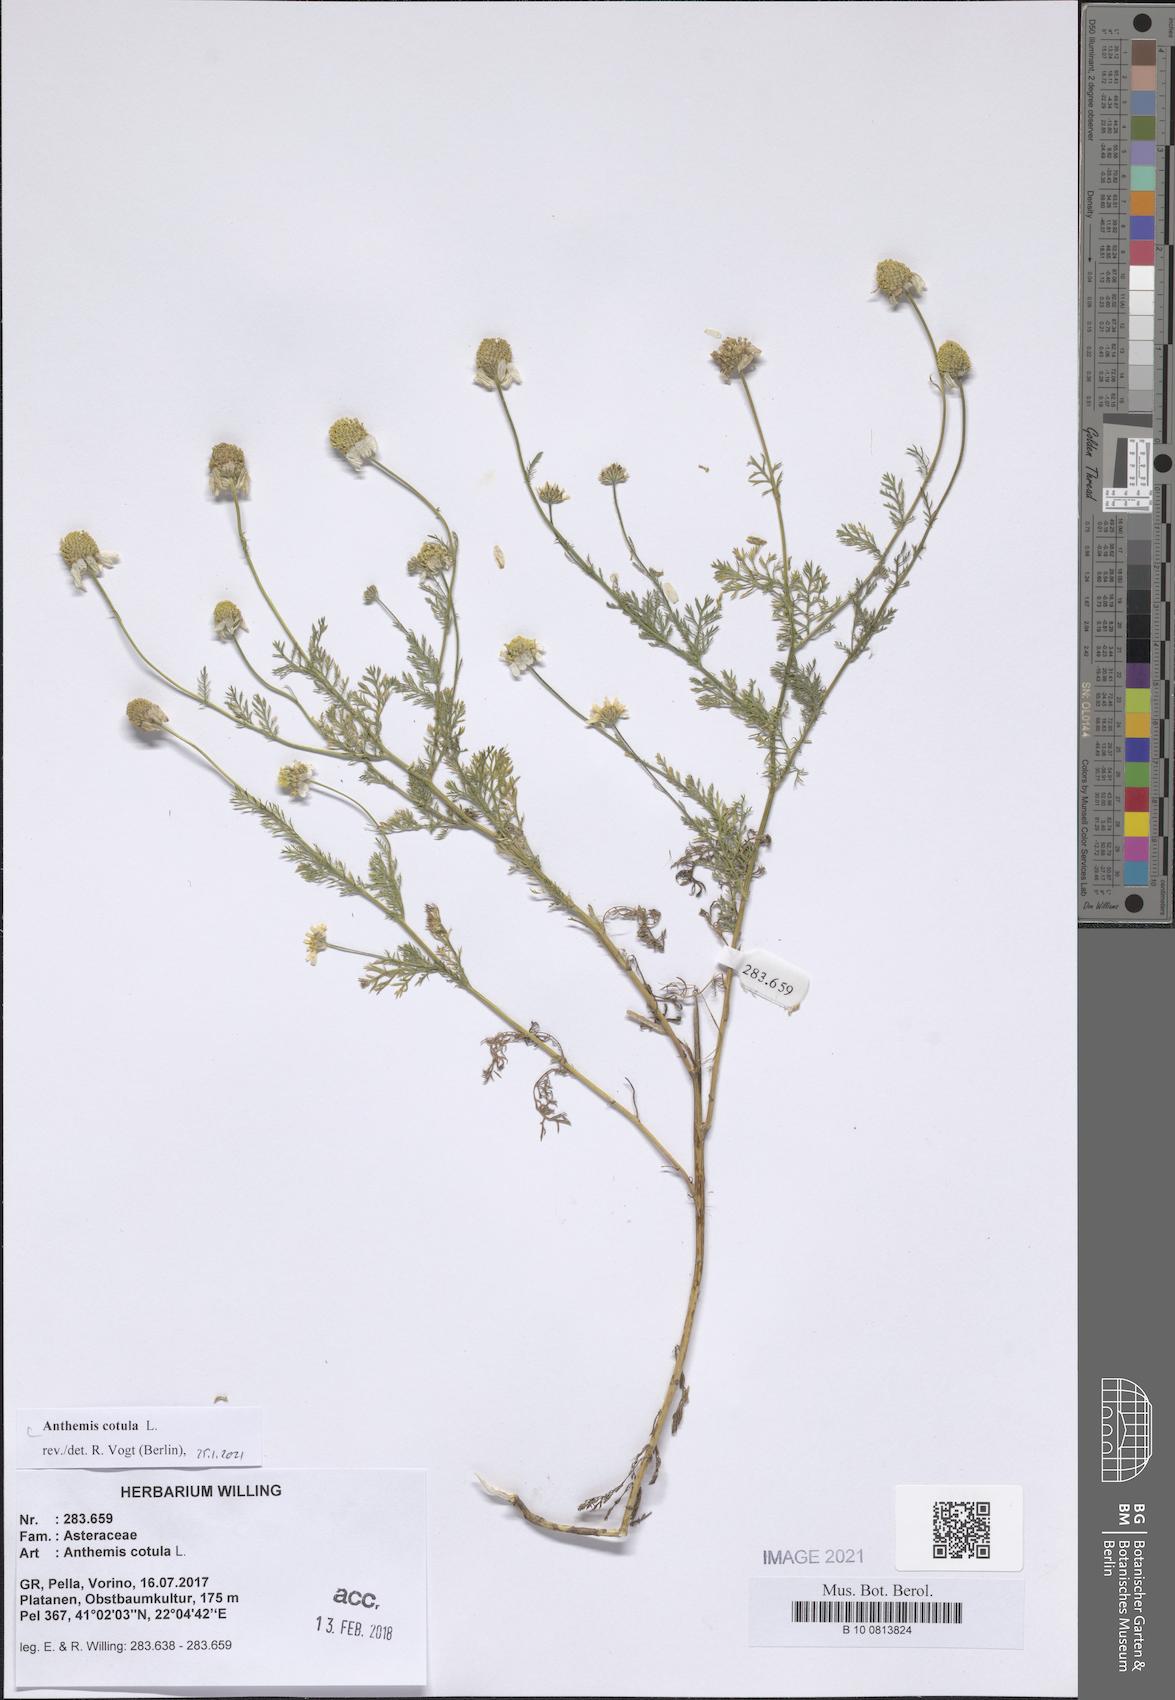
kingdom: Plantae
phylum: Tracheophyta
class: Magnoliopsida
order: Asterales
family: Asteraceae
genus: Anthemis
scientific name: Anthemis cotula
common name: Stinking chamomile
